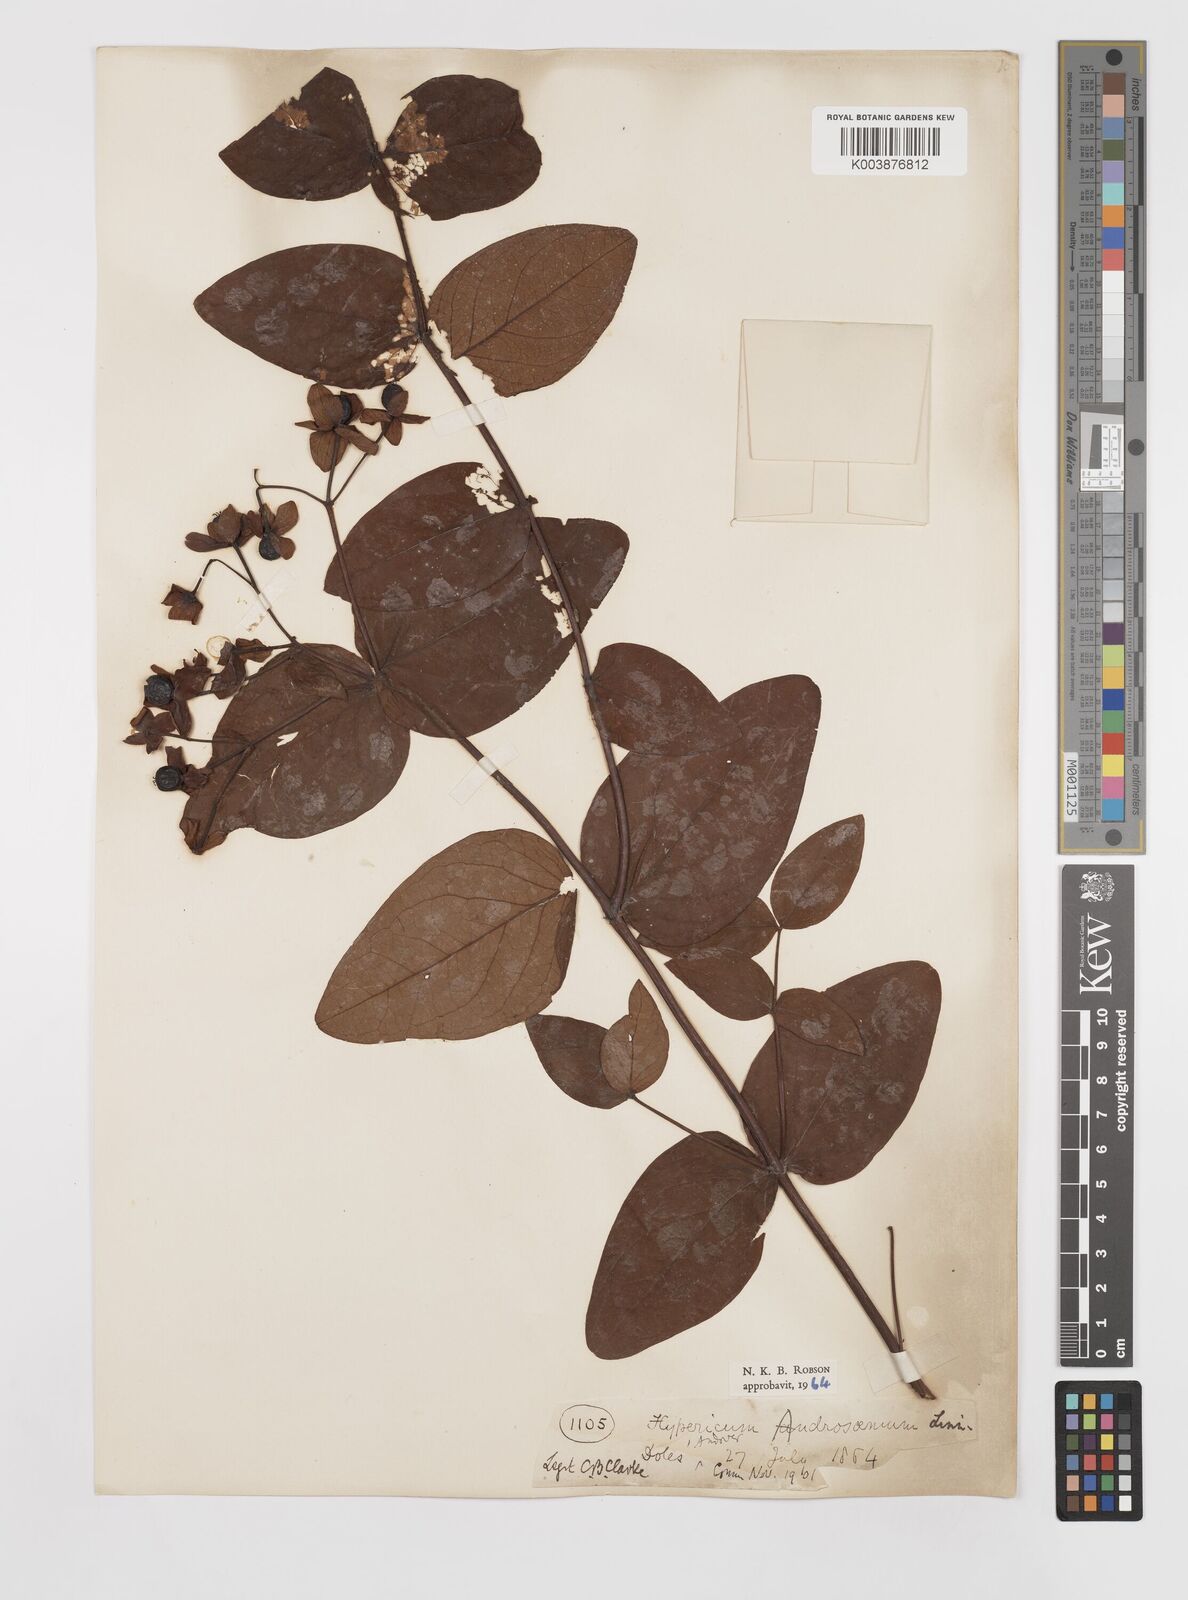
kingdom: Plantae
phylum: Tracheophyta
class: Magnoliopsida
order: Malpighiales
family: Hypericaceae
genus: Hypericum
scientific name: Hypericum androsaemum
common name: Sweet-amber
